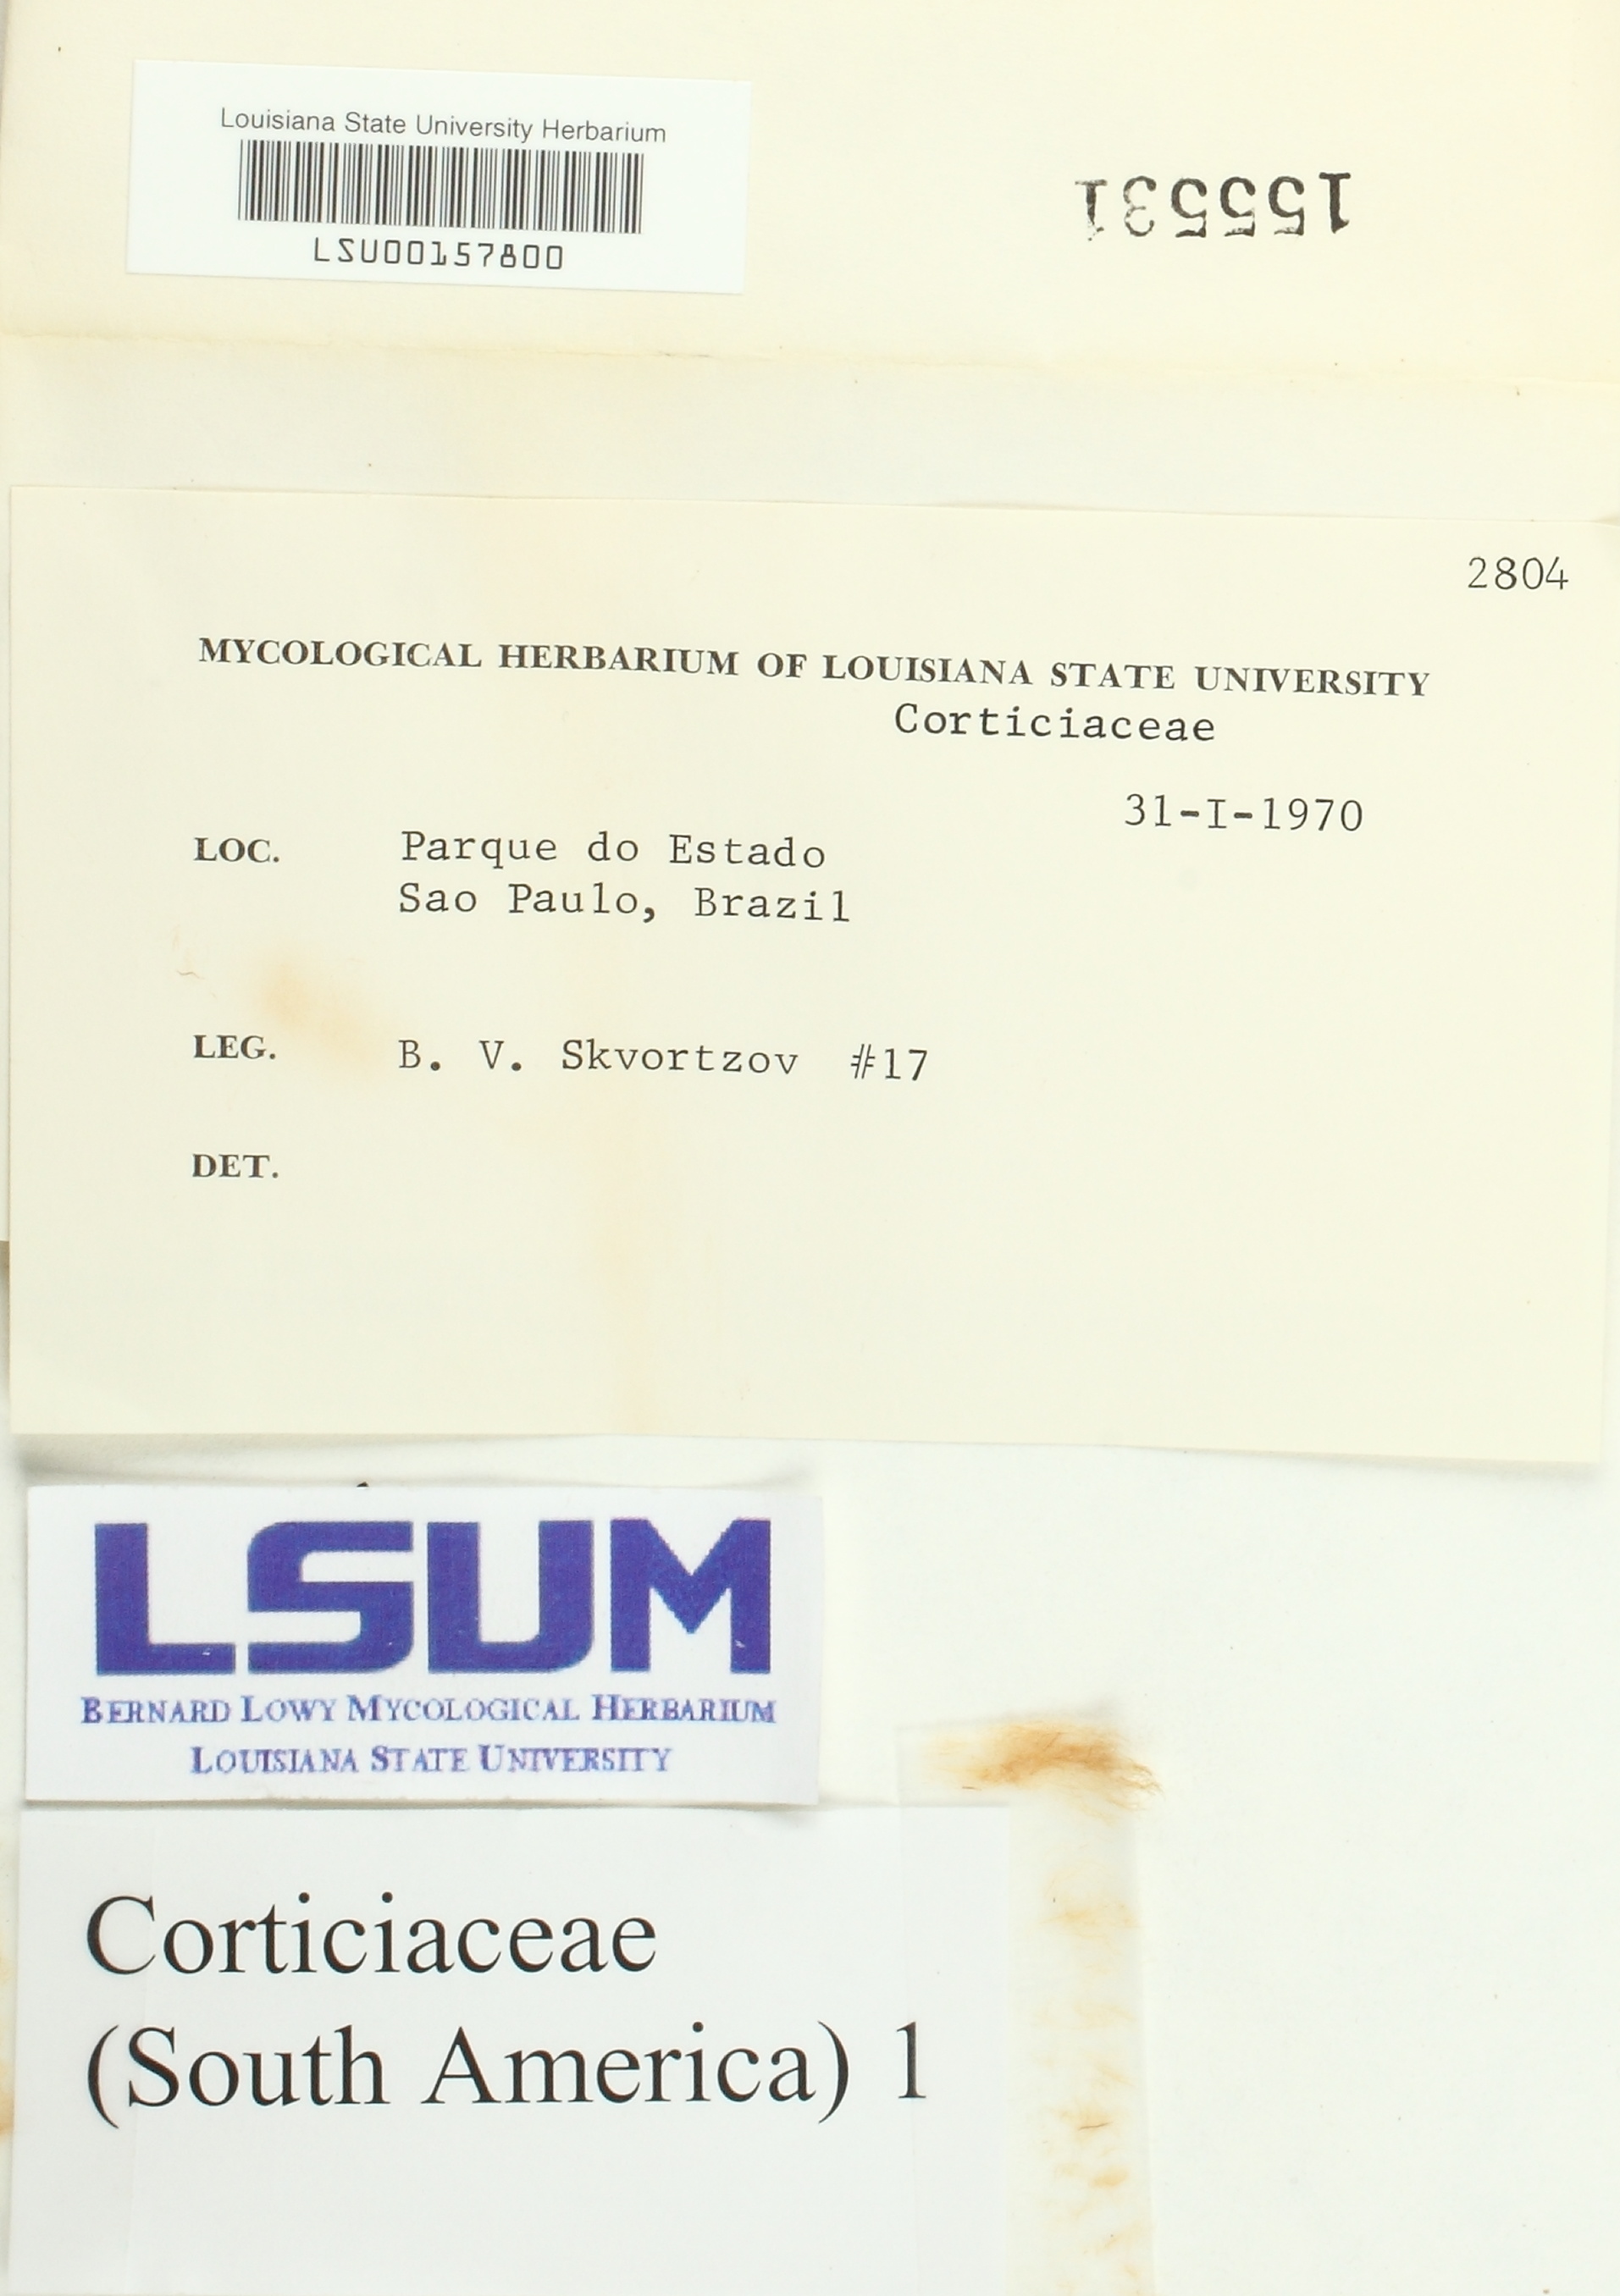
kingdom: Fungi
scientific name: Fungi
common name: Fungi
